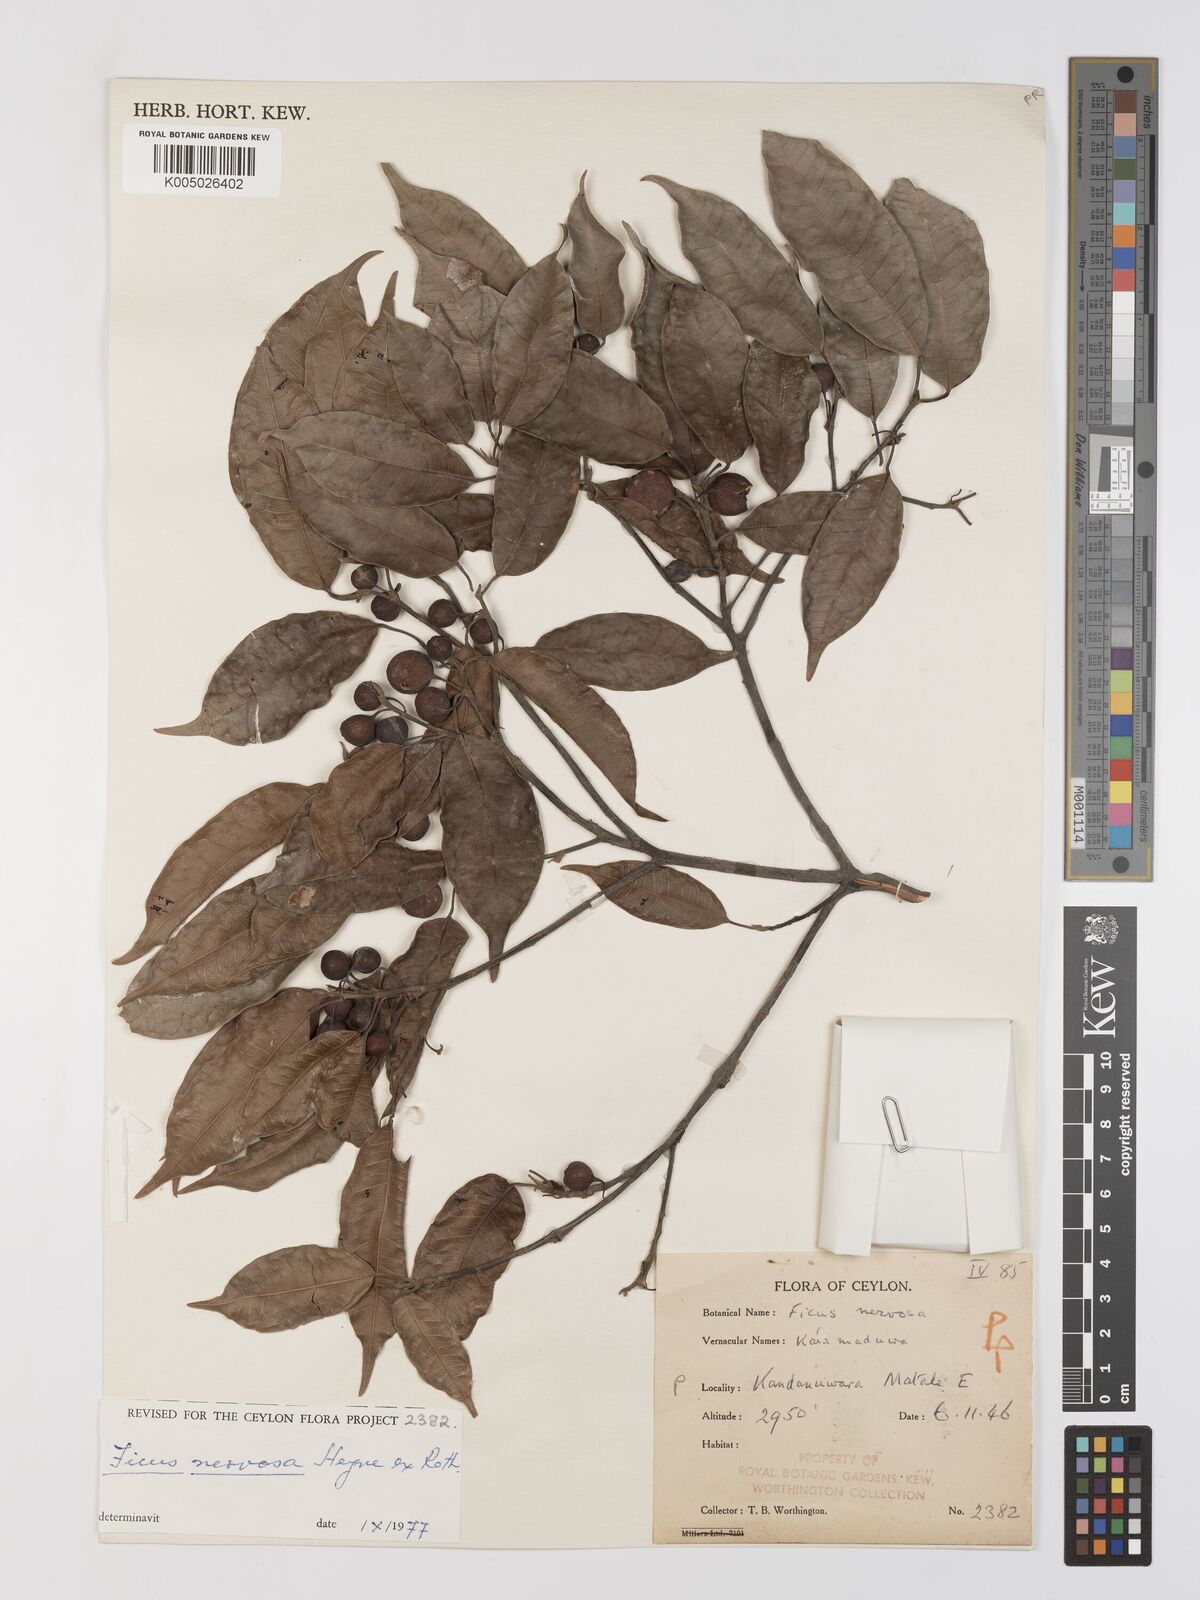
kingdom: Plantae
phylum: Tracheophyta
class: Magnoliopsida
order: Rosales
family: Moraceae
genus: Ficus
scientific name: Ficus nervosa
